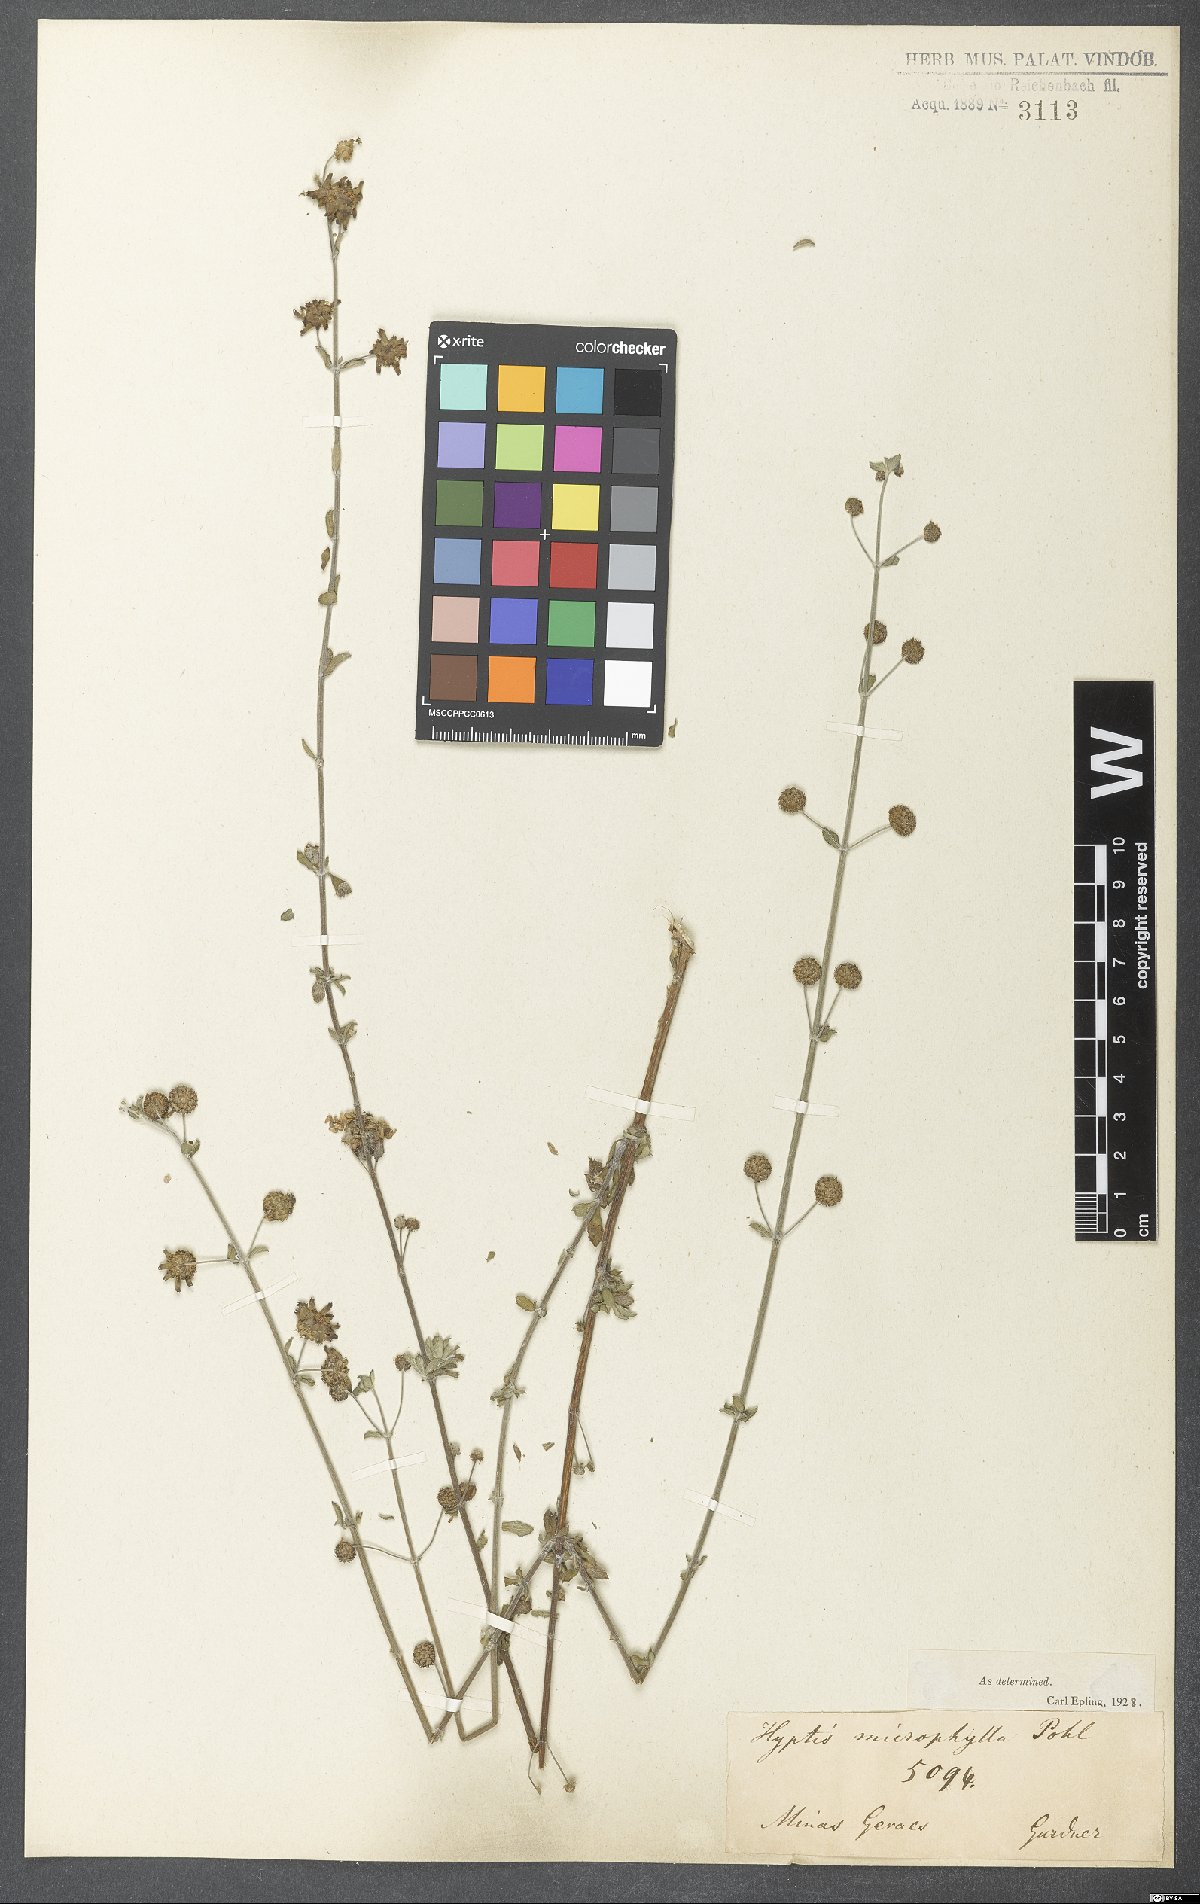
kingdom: Plantae
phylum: Tracheophyta
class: Magnoliopsida
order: Lamiales
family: Lamiaceae
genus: Hyptis
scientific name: Hyptis microphylla
